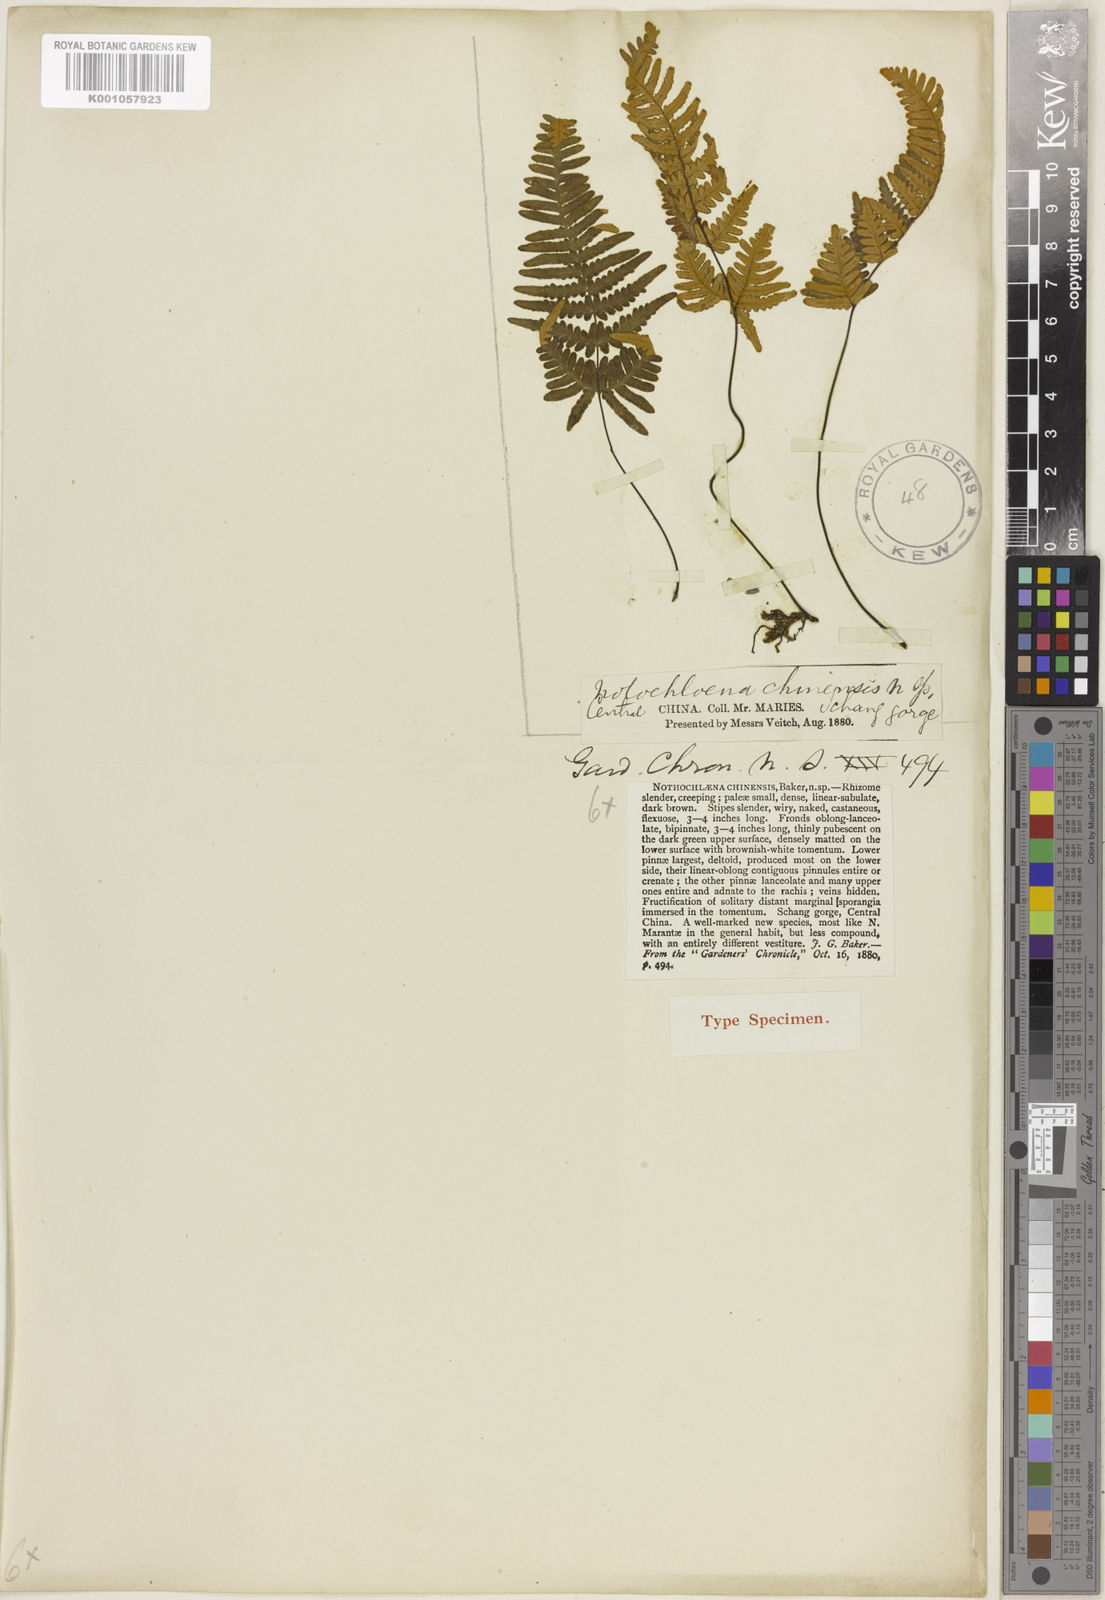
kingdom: Plantae
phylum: Tracheophyta
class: Polypodiopsida
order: Polypodiales
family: Pteridaceae
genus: Oeosporangium
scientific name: Oeosporangium chinense
